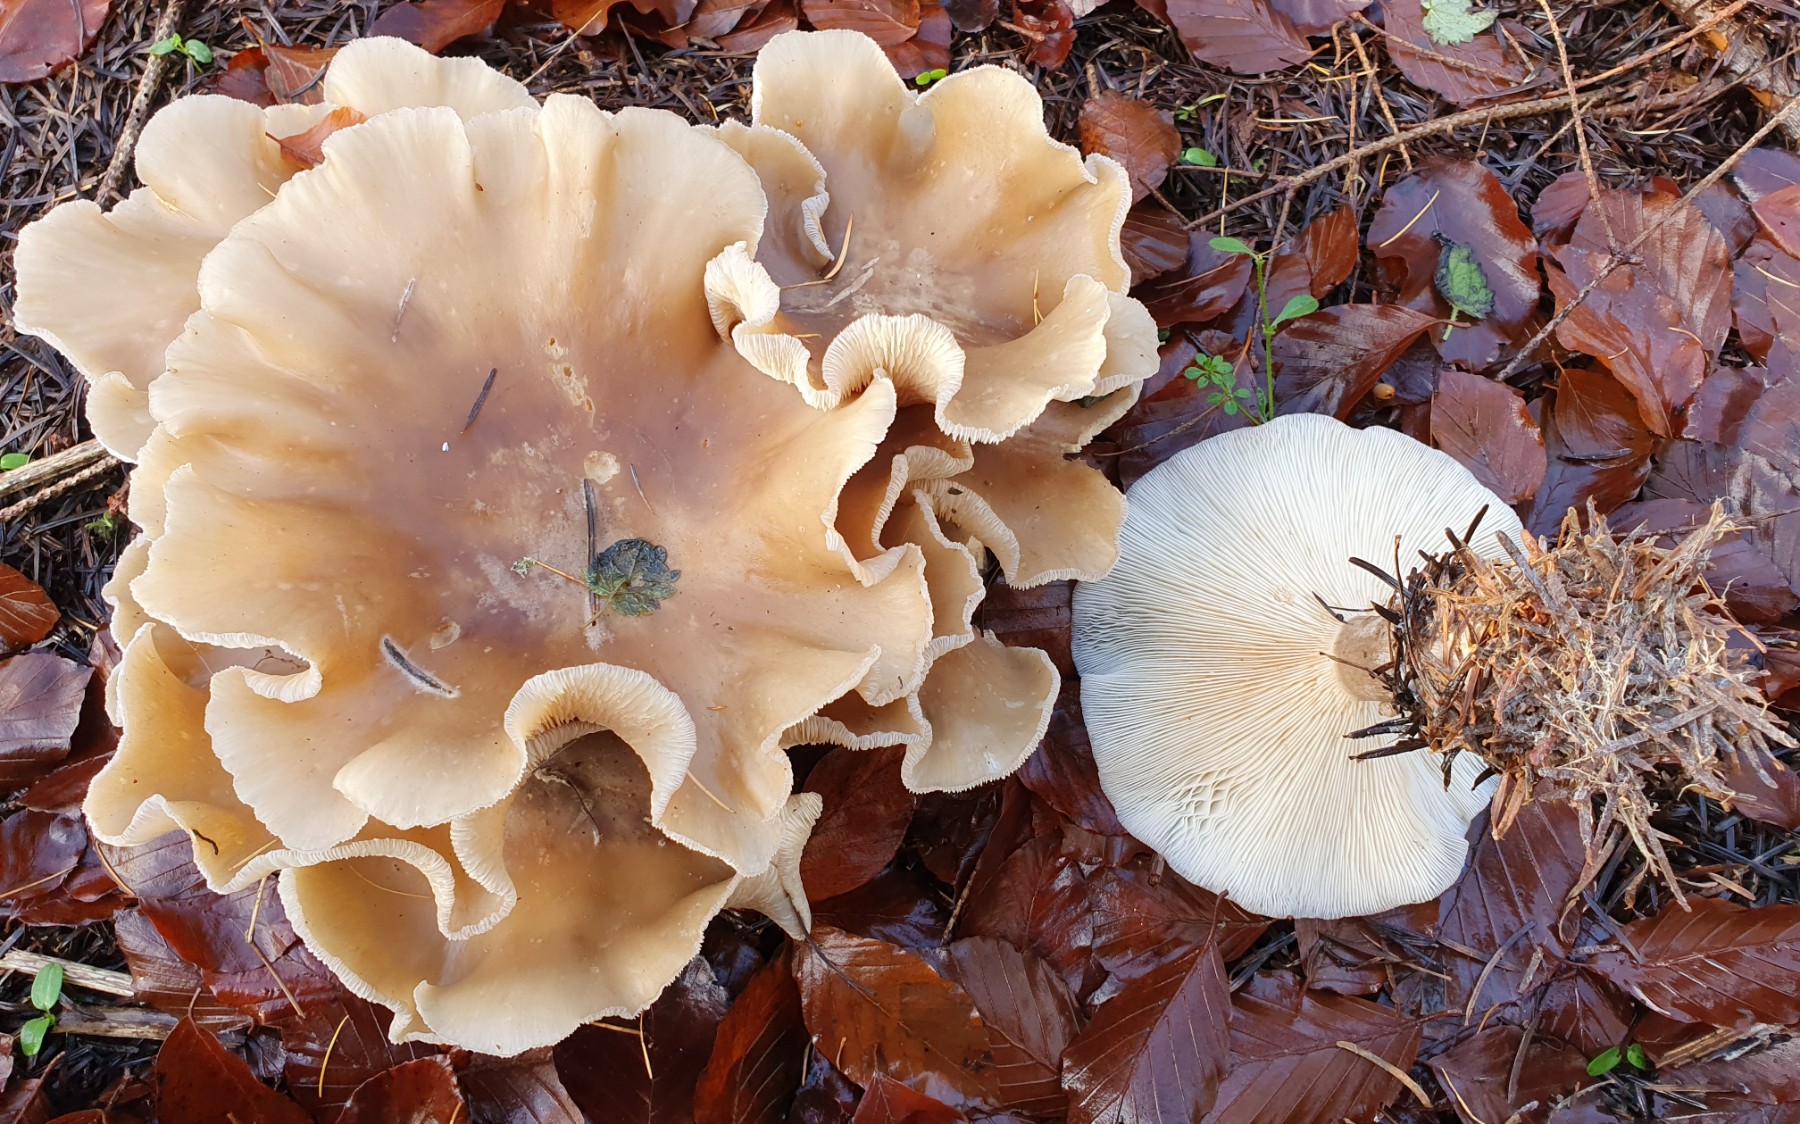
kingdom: Fungi
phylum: Basidiomycota
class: Agaricomycetes
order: Agaricales
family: Tricholomataceae
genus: Clitocybe
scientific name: Clitocybe nebularis
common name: tåge-tragthat
